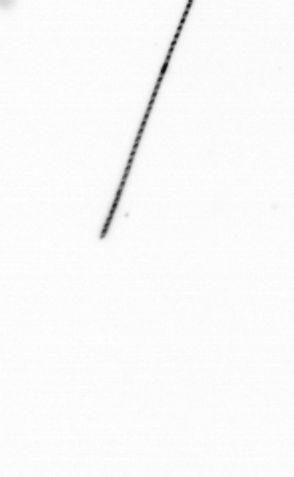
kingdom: Chromista
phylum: Ochrophyta
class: Bacillariophyceae
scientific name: Bacillariophyceae
